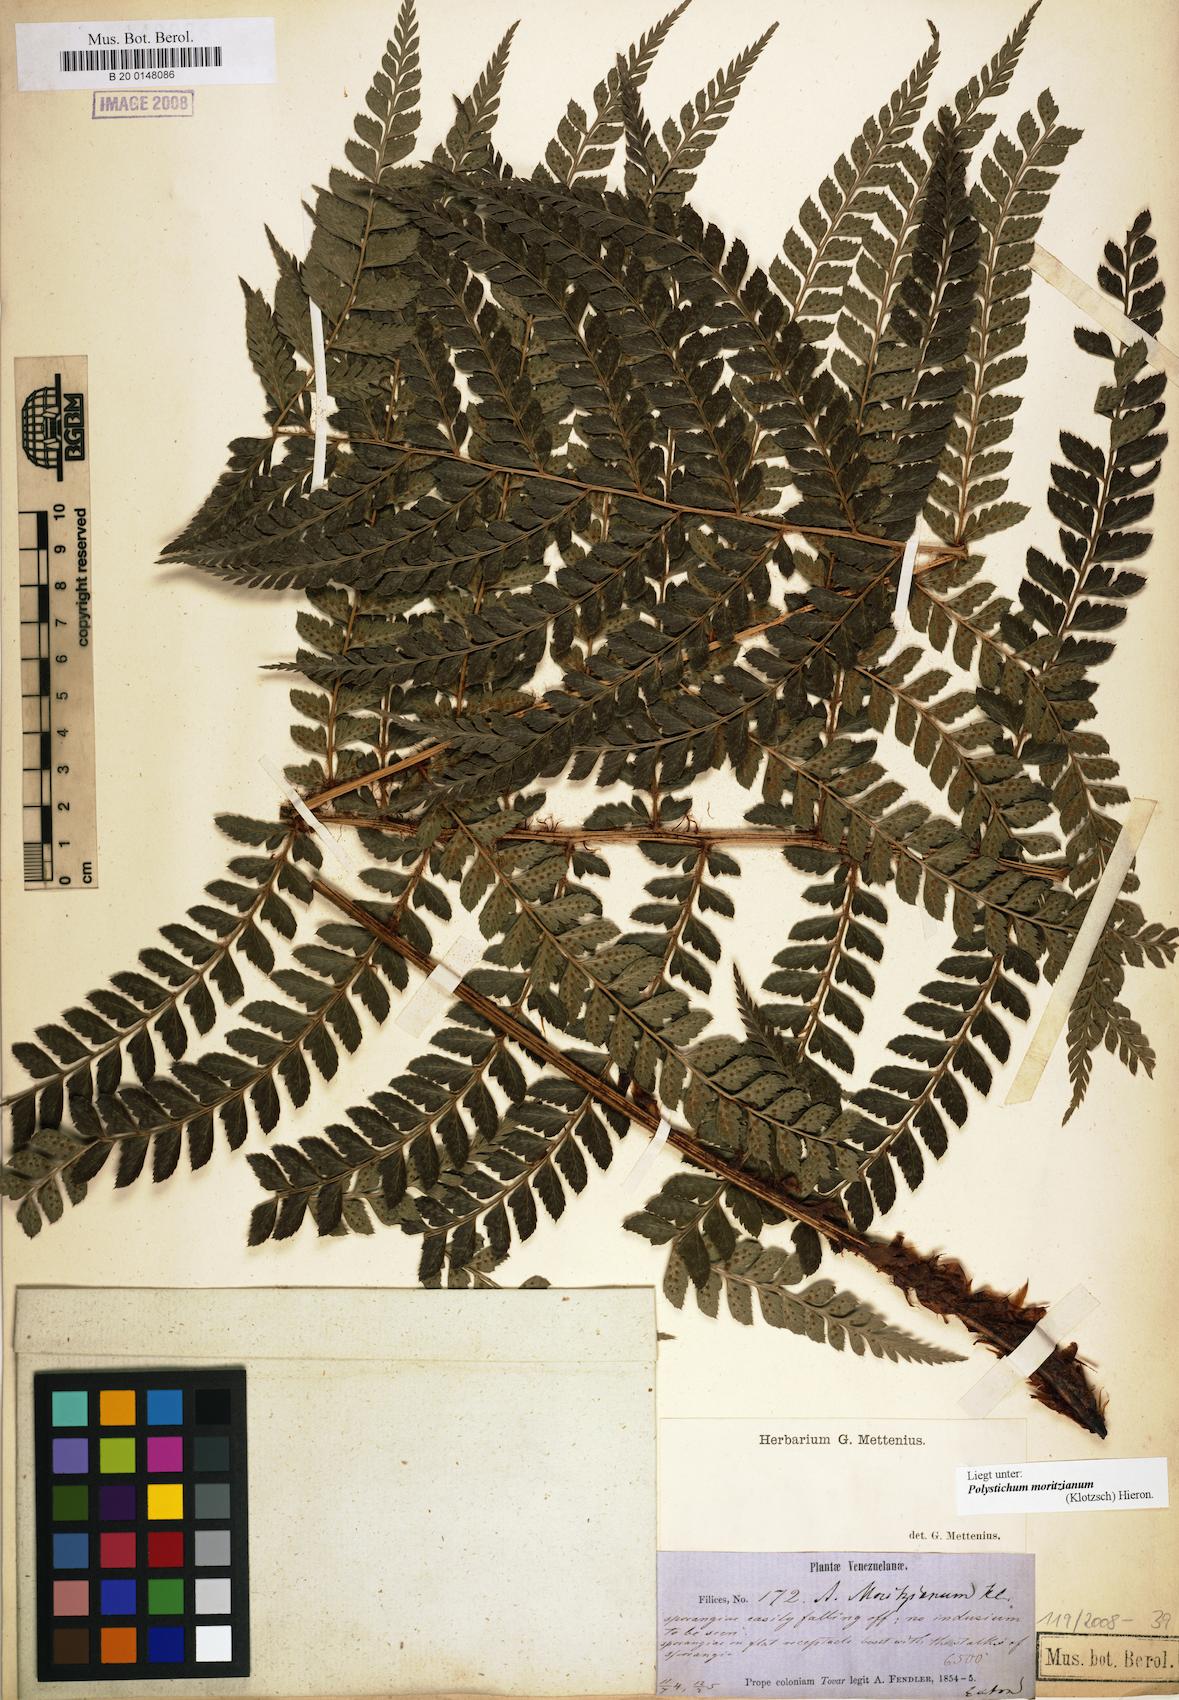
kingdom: Plantae
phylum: Tracheophyta
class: Polypodiopsida
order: Polypodiales
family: Dryopteridaceae
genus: Polystichum
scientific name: Polystichum muricatum
